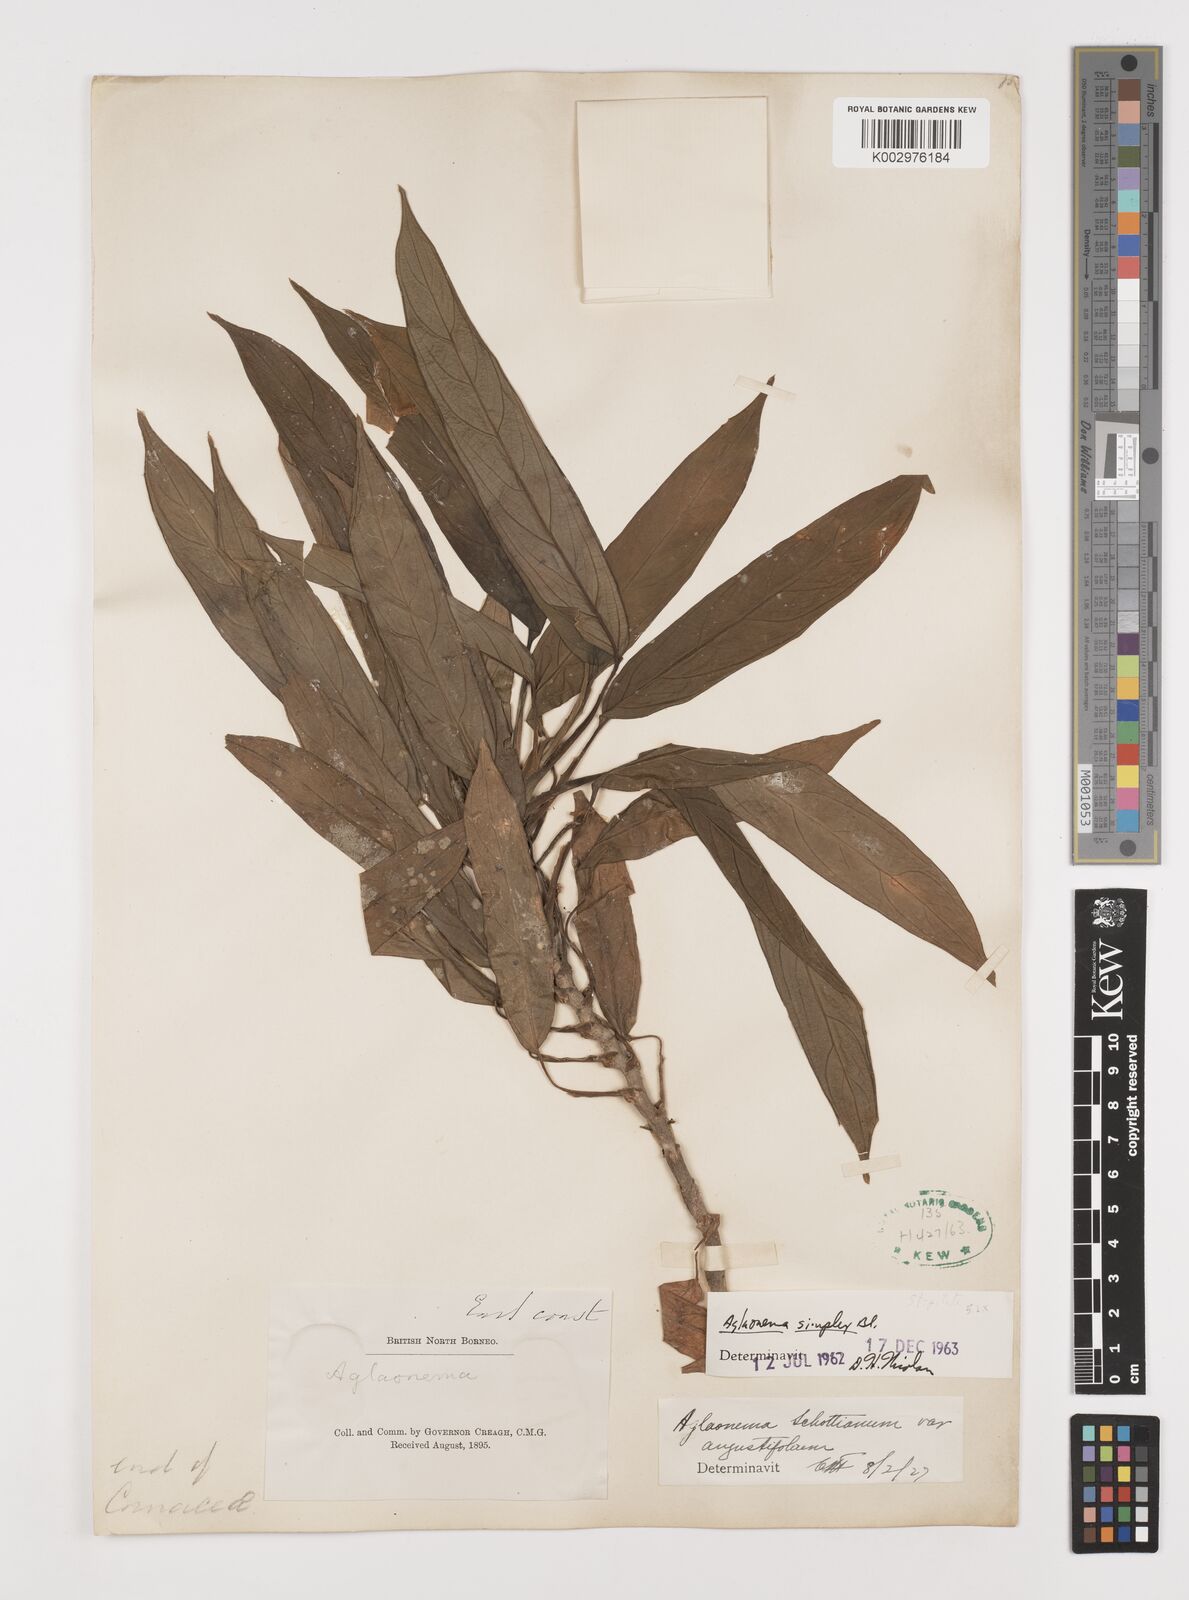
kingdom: Plantae
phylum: Tracheophyta
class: Liliopsida
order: Alismatales
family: Araceae
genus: Aglaonema
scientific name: Aglaonema simplex
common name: Malayan-sword
